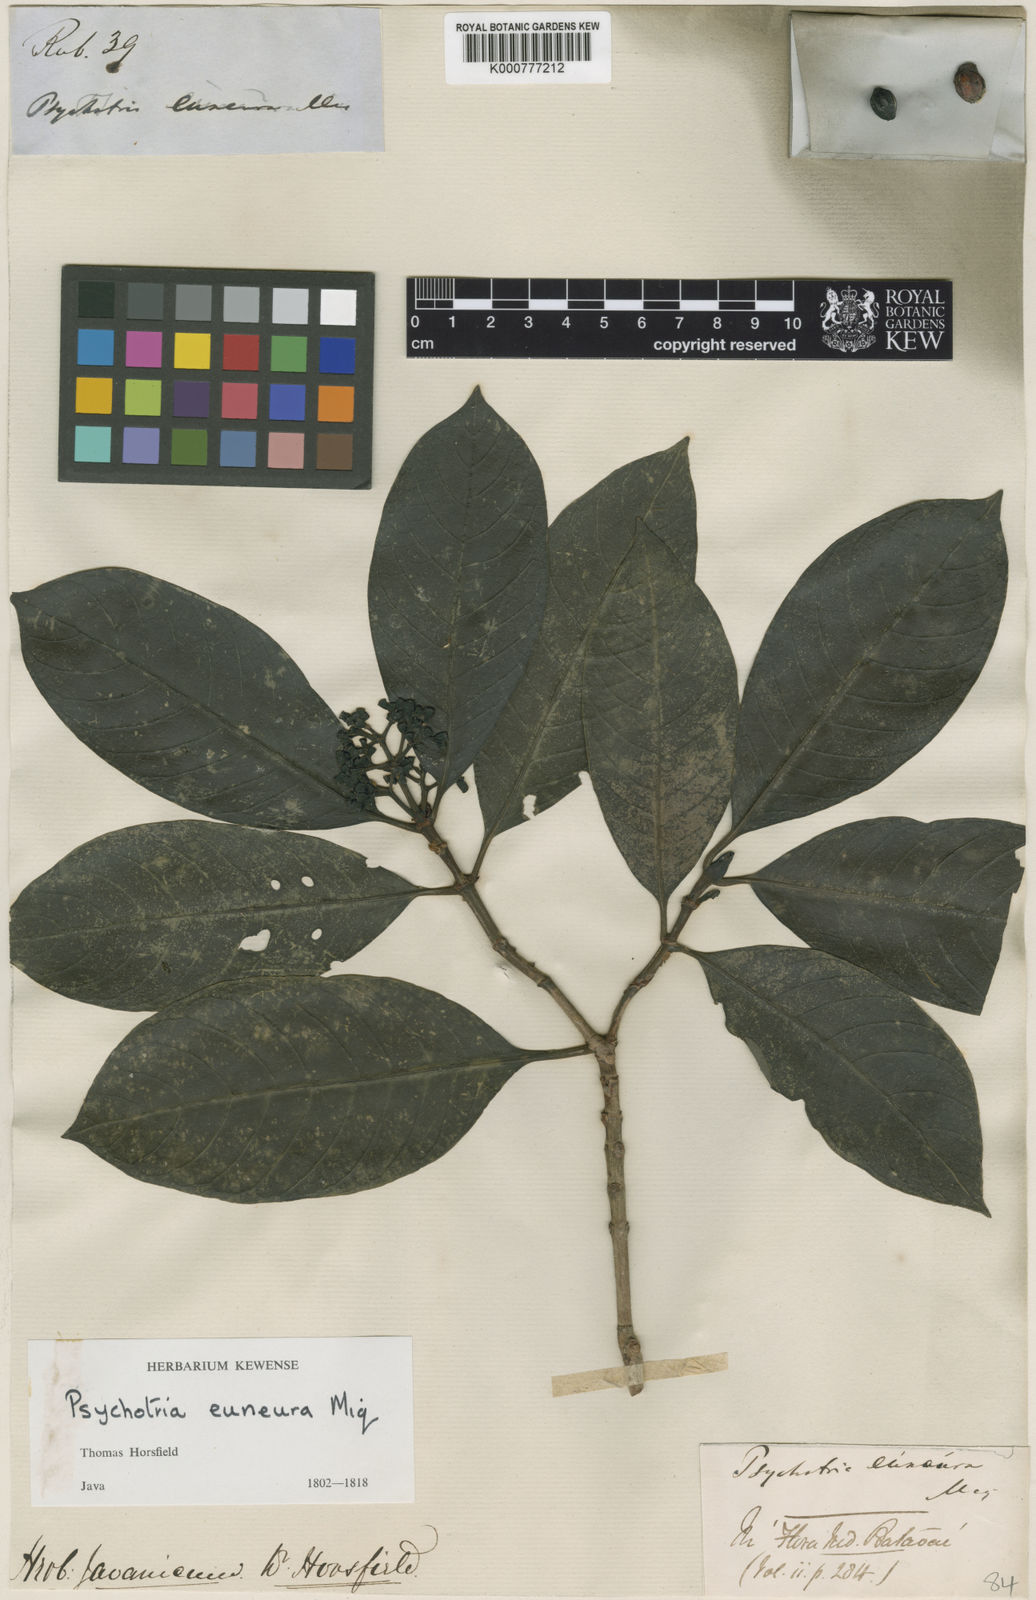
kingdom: Plantae
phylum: Tracheophyta
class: Magnoliopsida
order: Gentianales
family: Rubiaceae
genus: Psychotria
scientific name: Psychotria euneura
